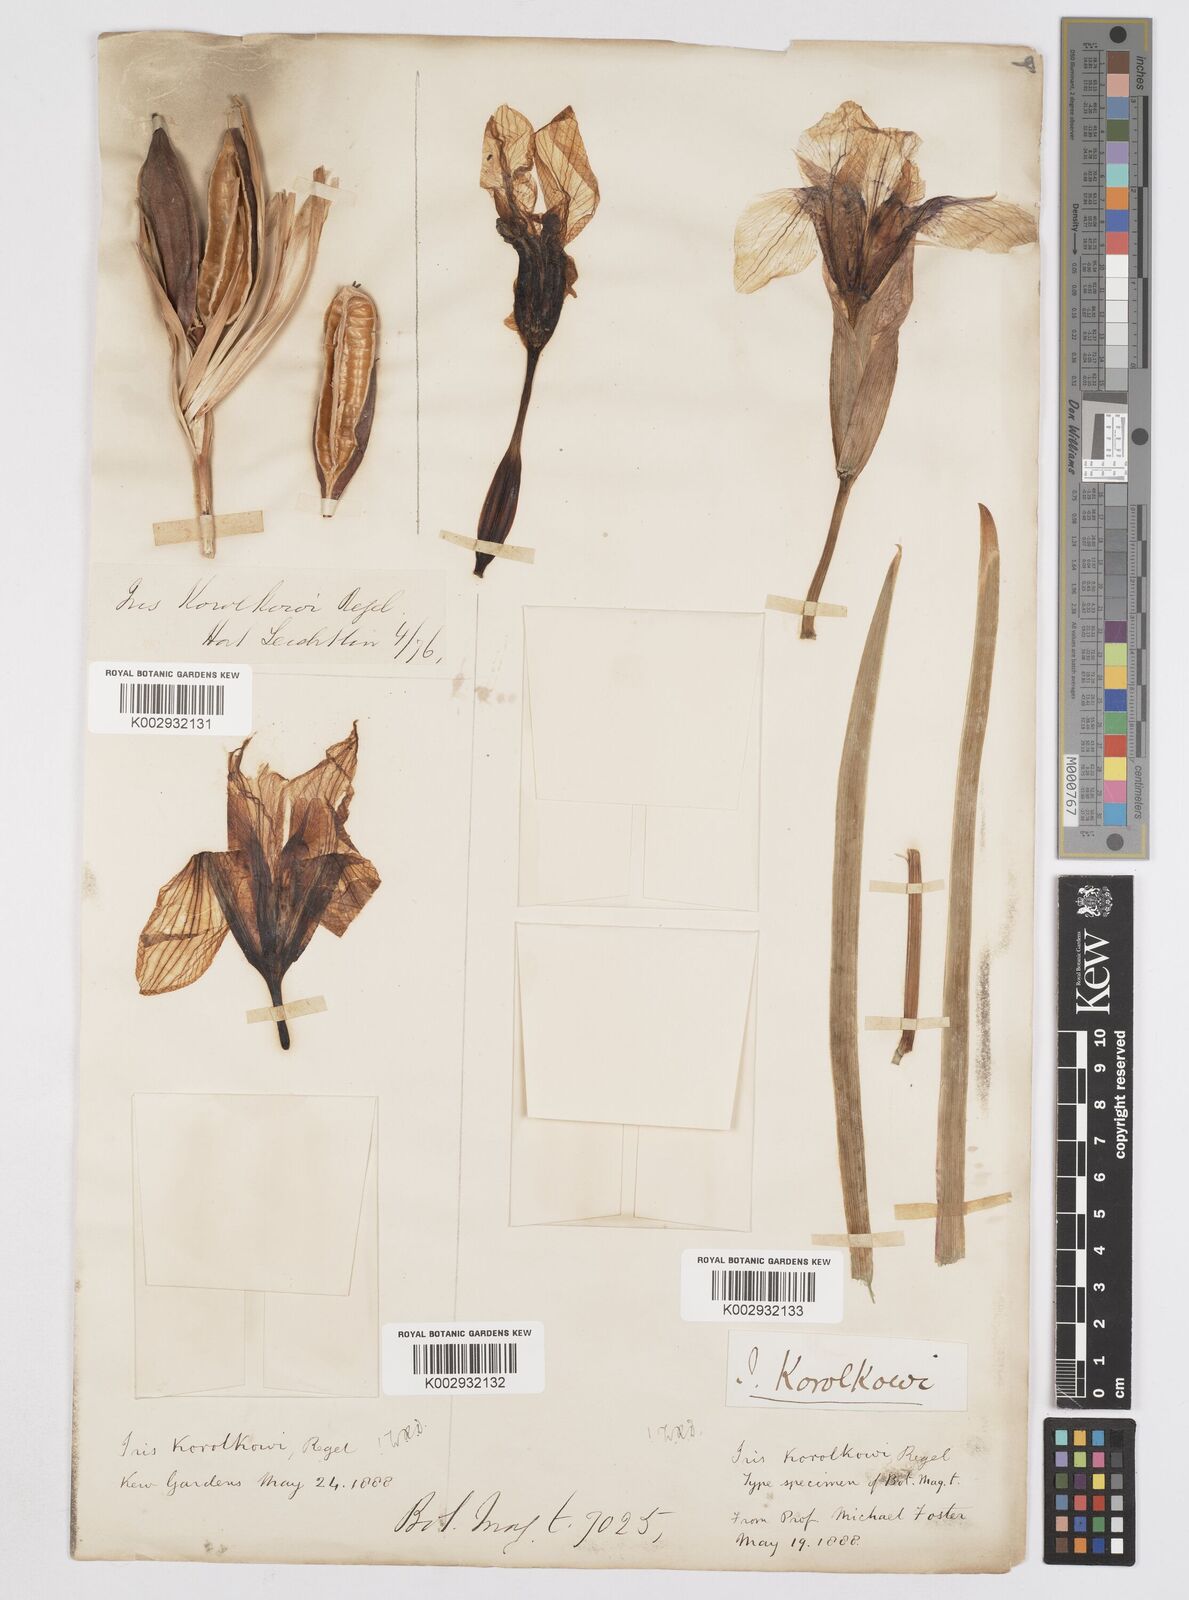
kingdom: Plantae
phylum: Tracheophyta
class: Liliopsida
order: Asparagales
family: Iridaceae
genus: Iris
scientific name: Iris korolkowii
